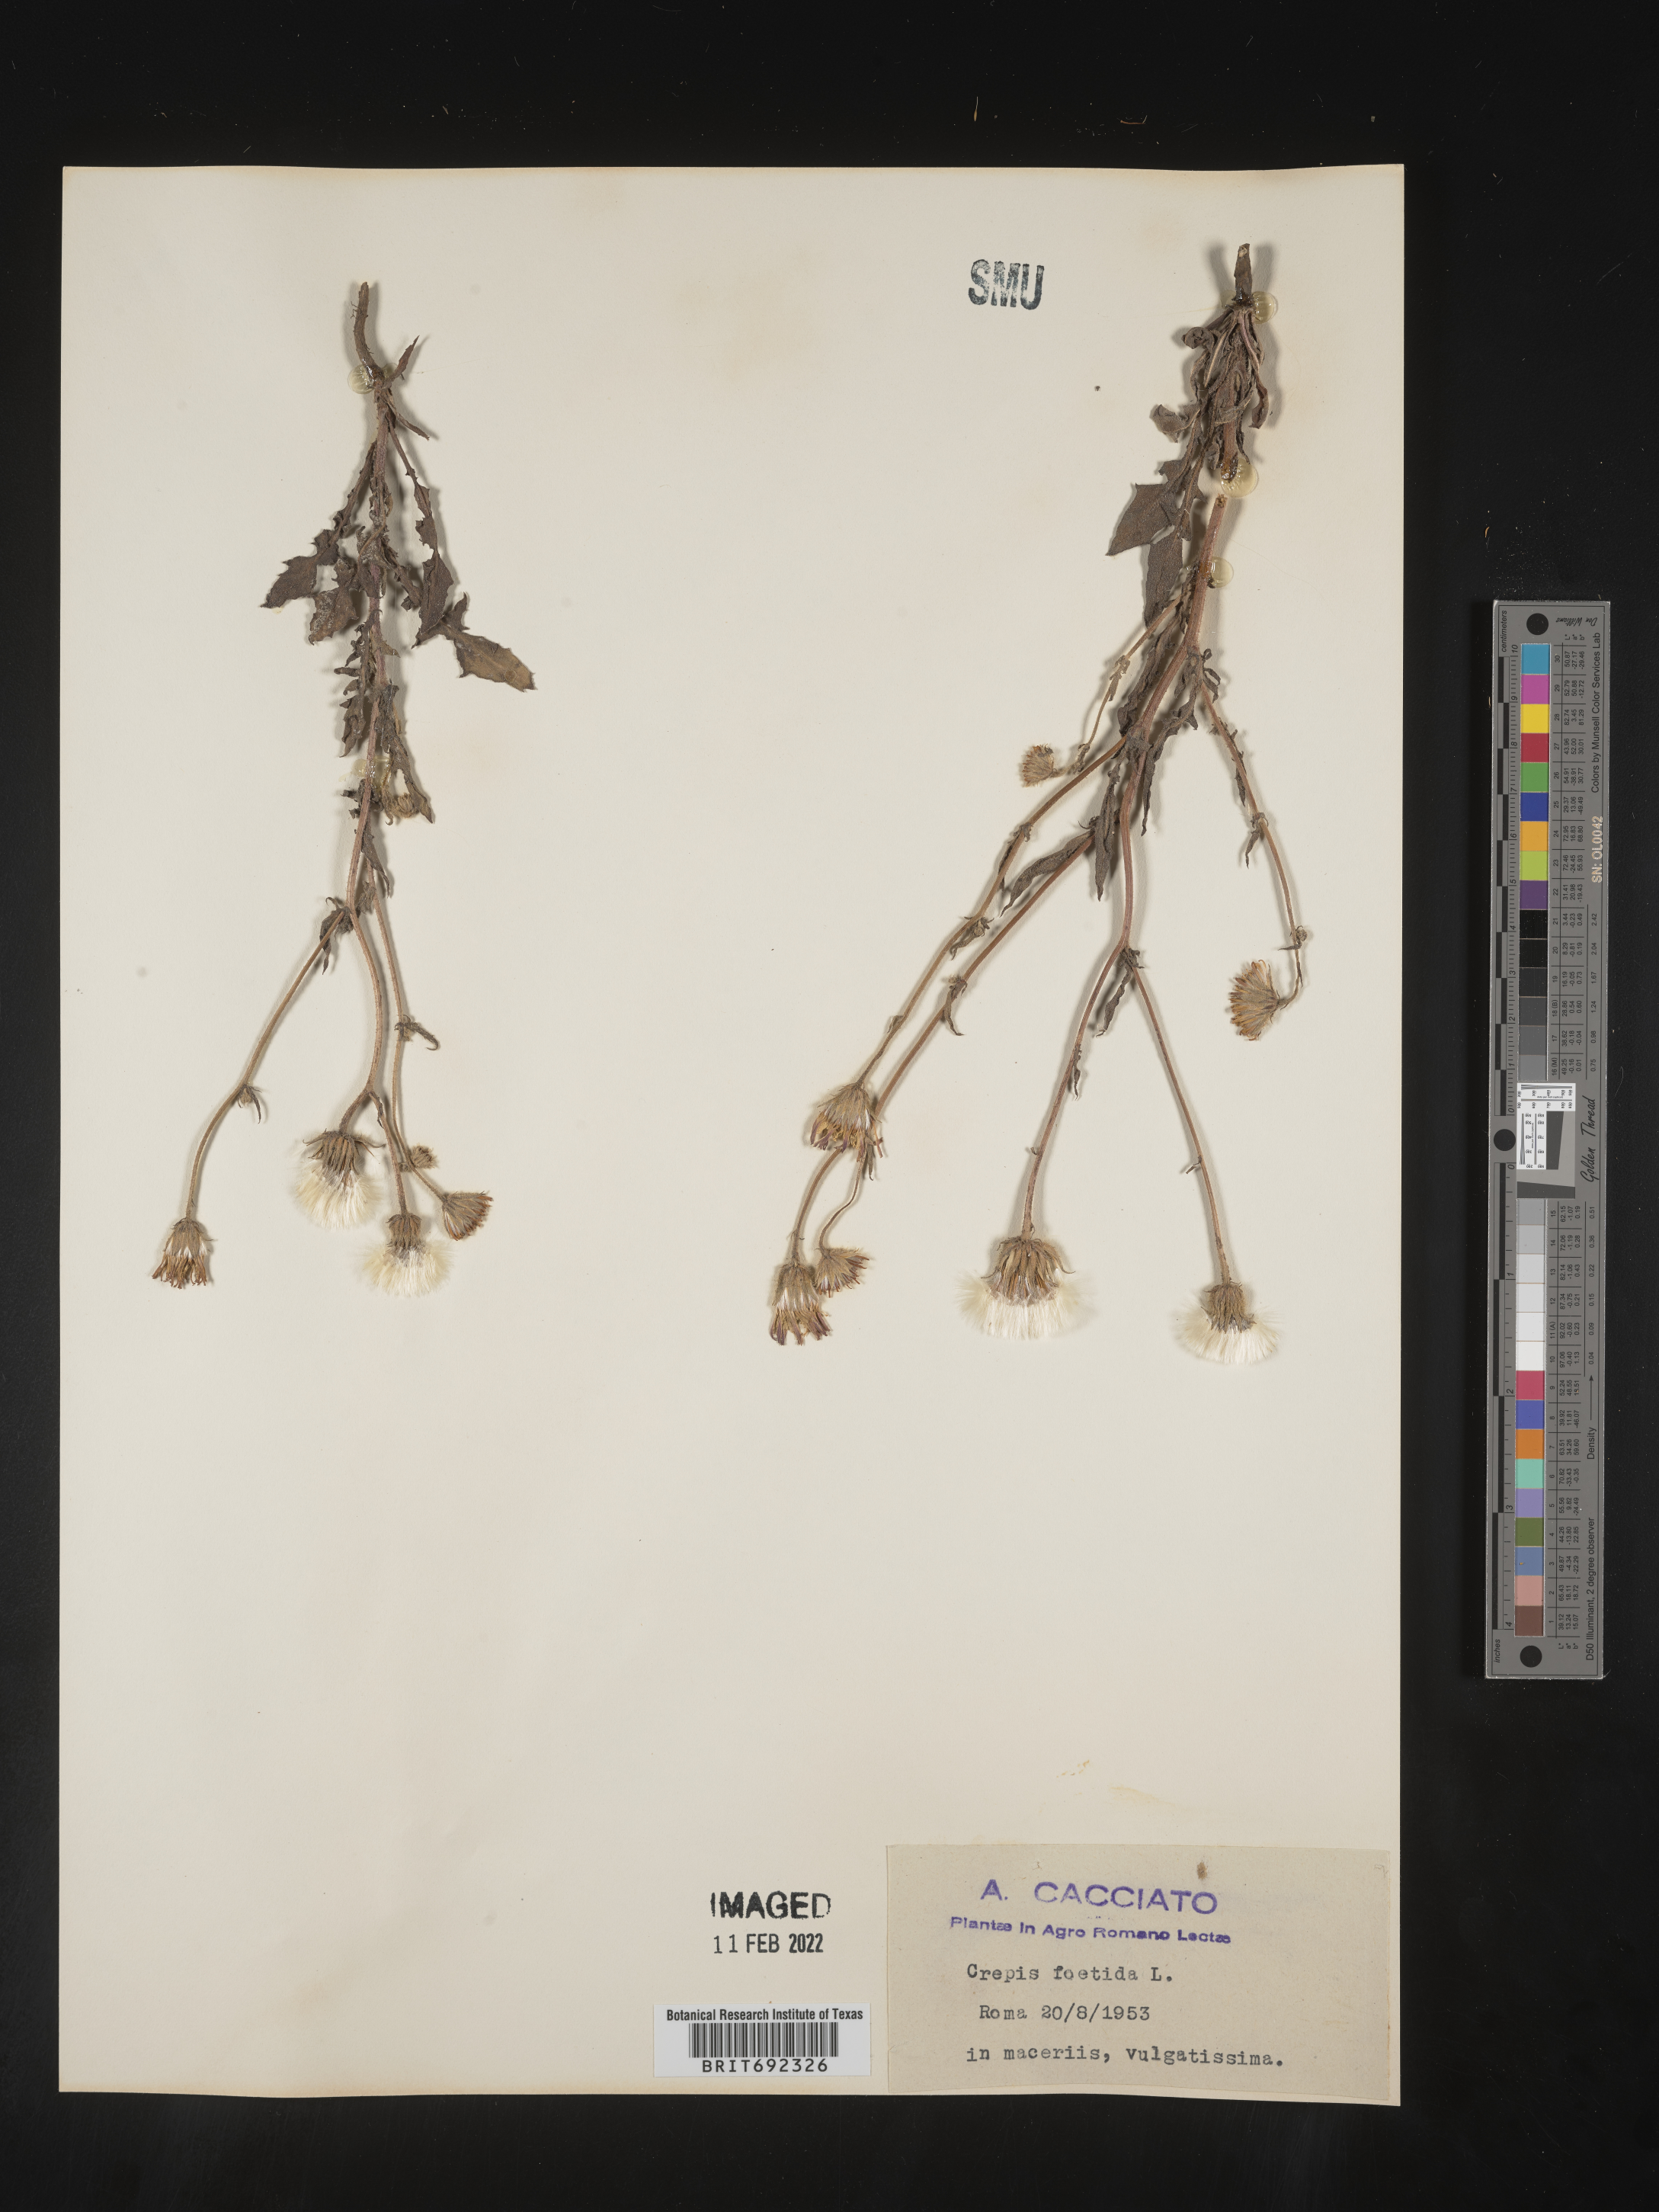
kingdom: Plantae
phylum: Tracheophyta
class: Magnoliopsida
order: Asterales
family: Asteraceae
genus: Crepis
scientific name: Crepis
